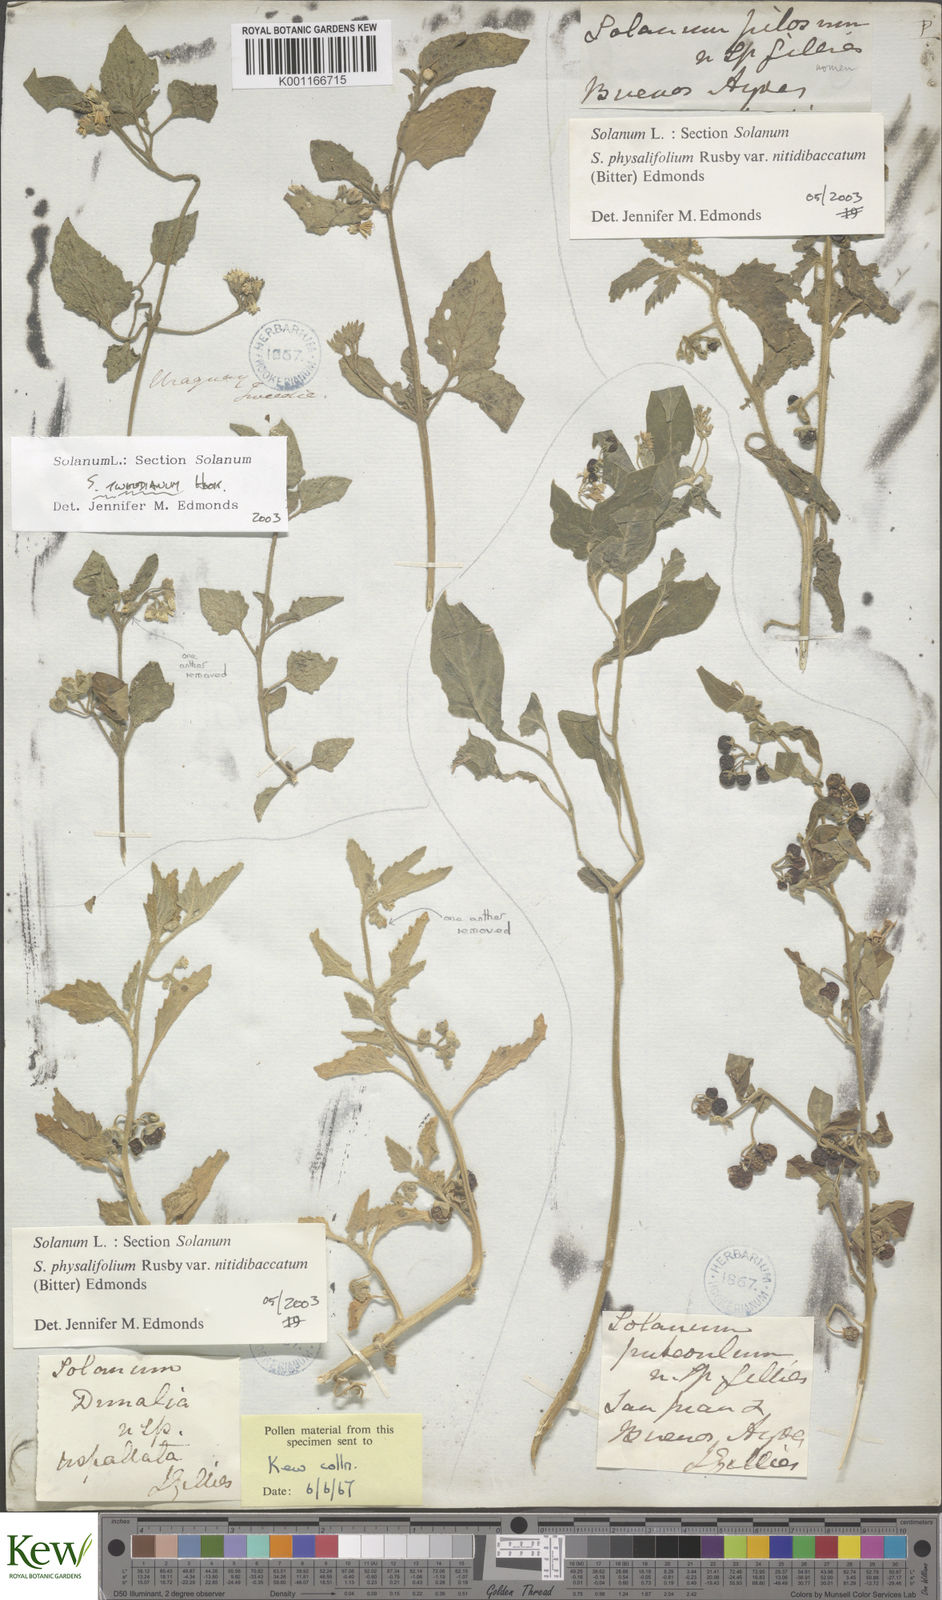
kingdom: Plantae
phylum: Tracheophyta
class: Magnoliopsida
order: Solanales
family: Solanaceae
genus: Solanum
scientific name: Solanum tweedianum
